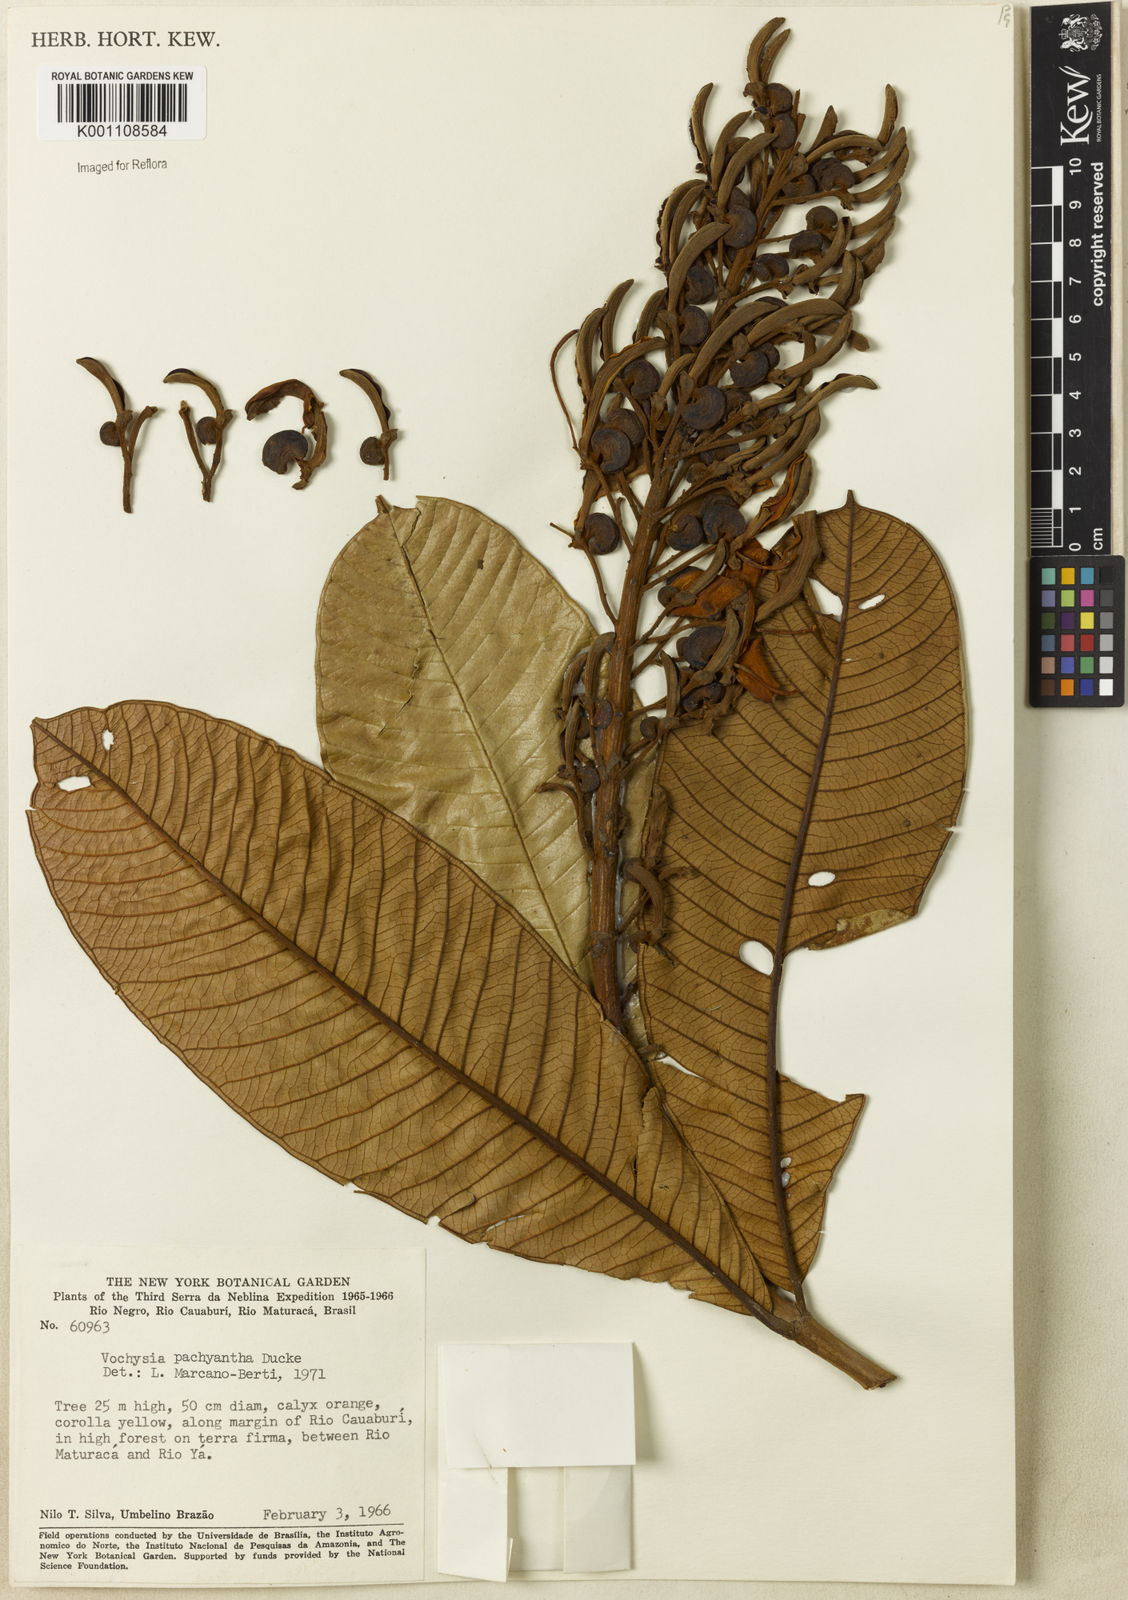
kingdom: Plantae
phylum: Tracheophyta
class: Magnoliopsida
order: Myrtales
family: Vochysiaceae
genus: Vochysia
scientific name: Vochysia pachyantha
